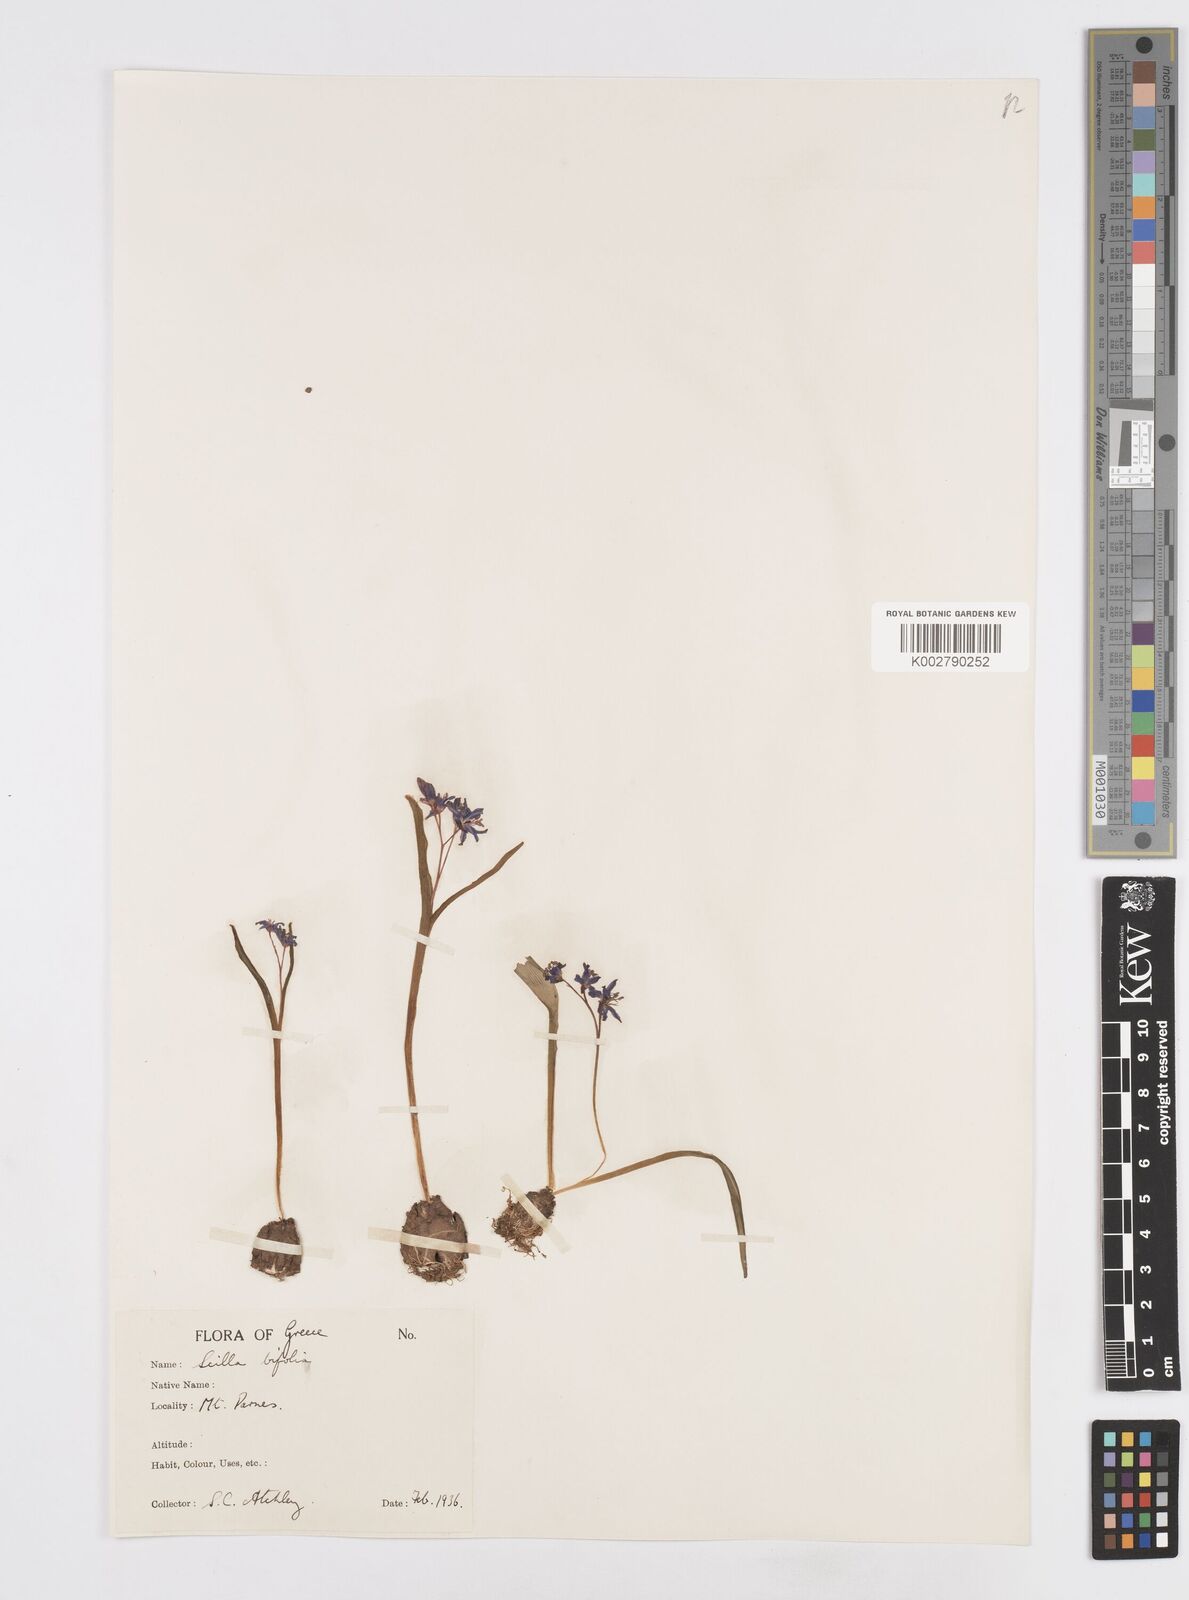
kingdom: Plantae
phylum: Tracheophyta
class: Liliopsida
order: Asparagales
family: Asparagaceae
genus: Scilla
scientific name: Scilla bifolia
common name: Alpine squill
